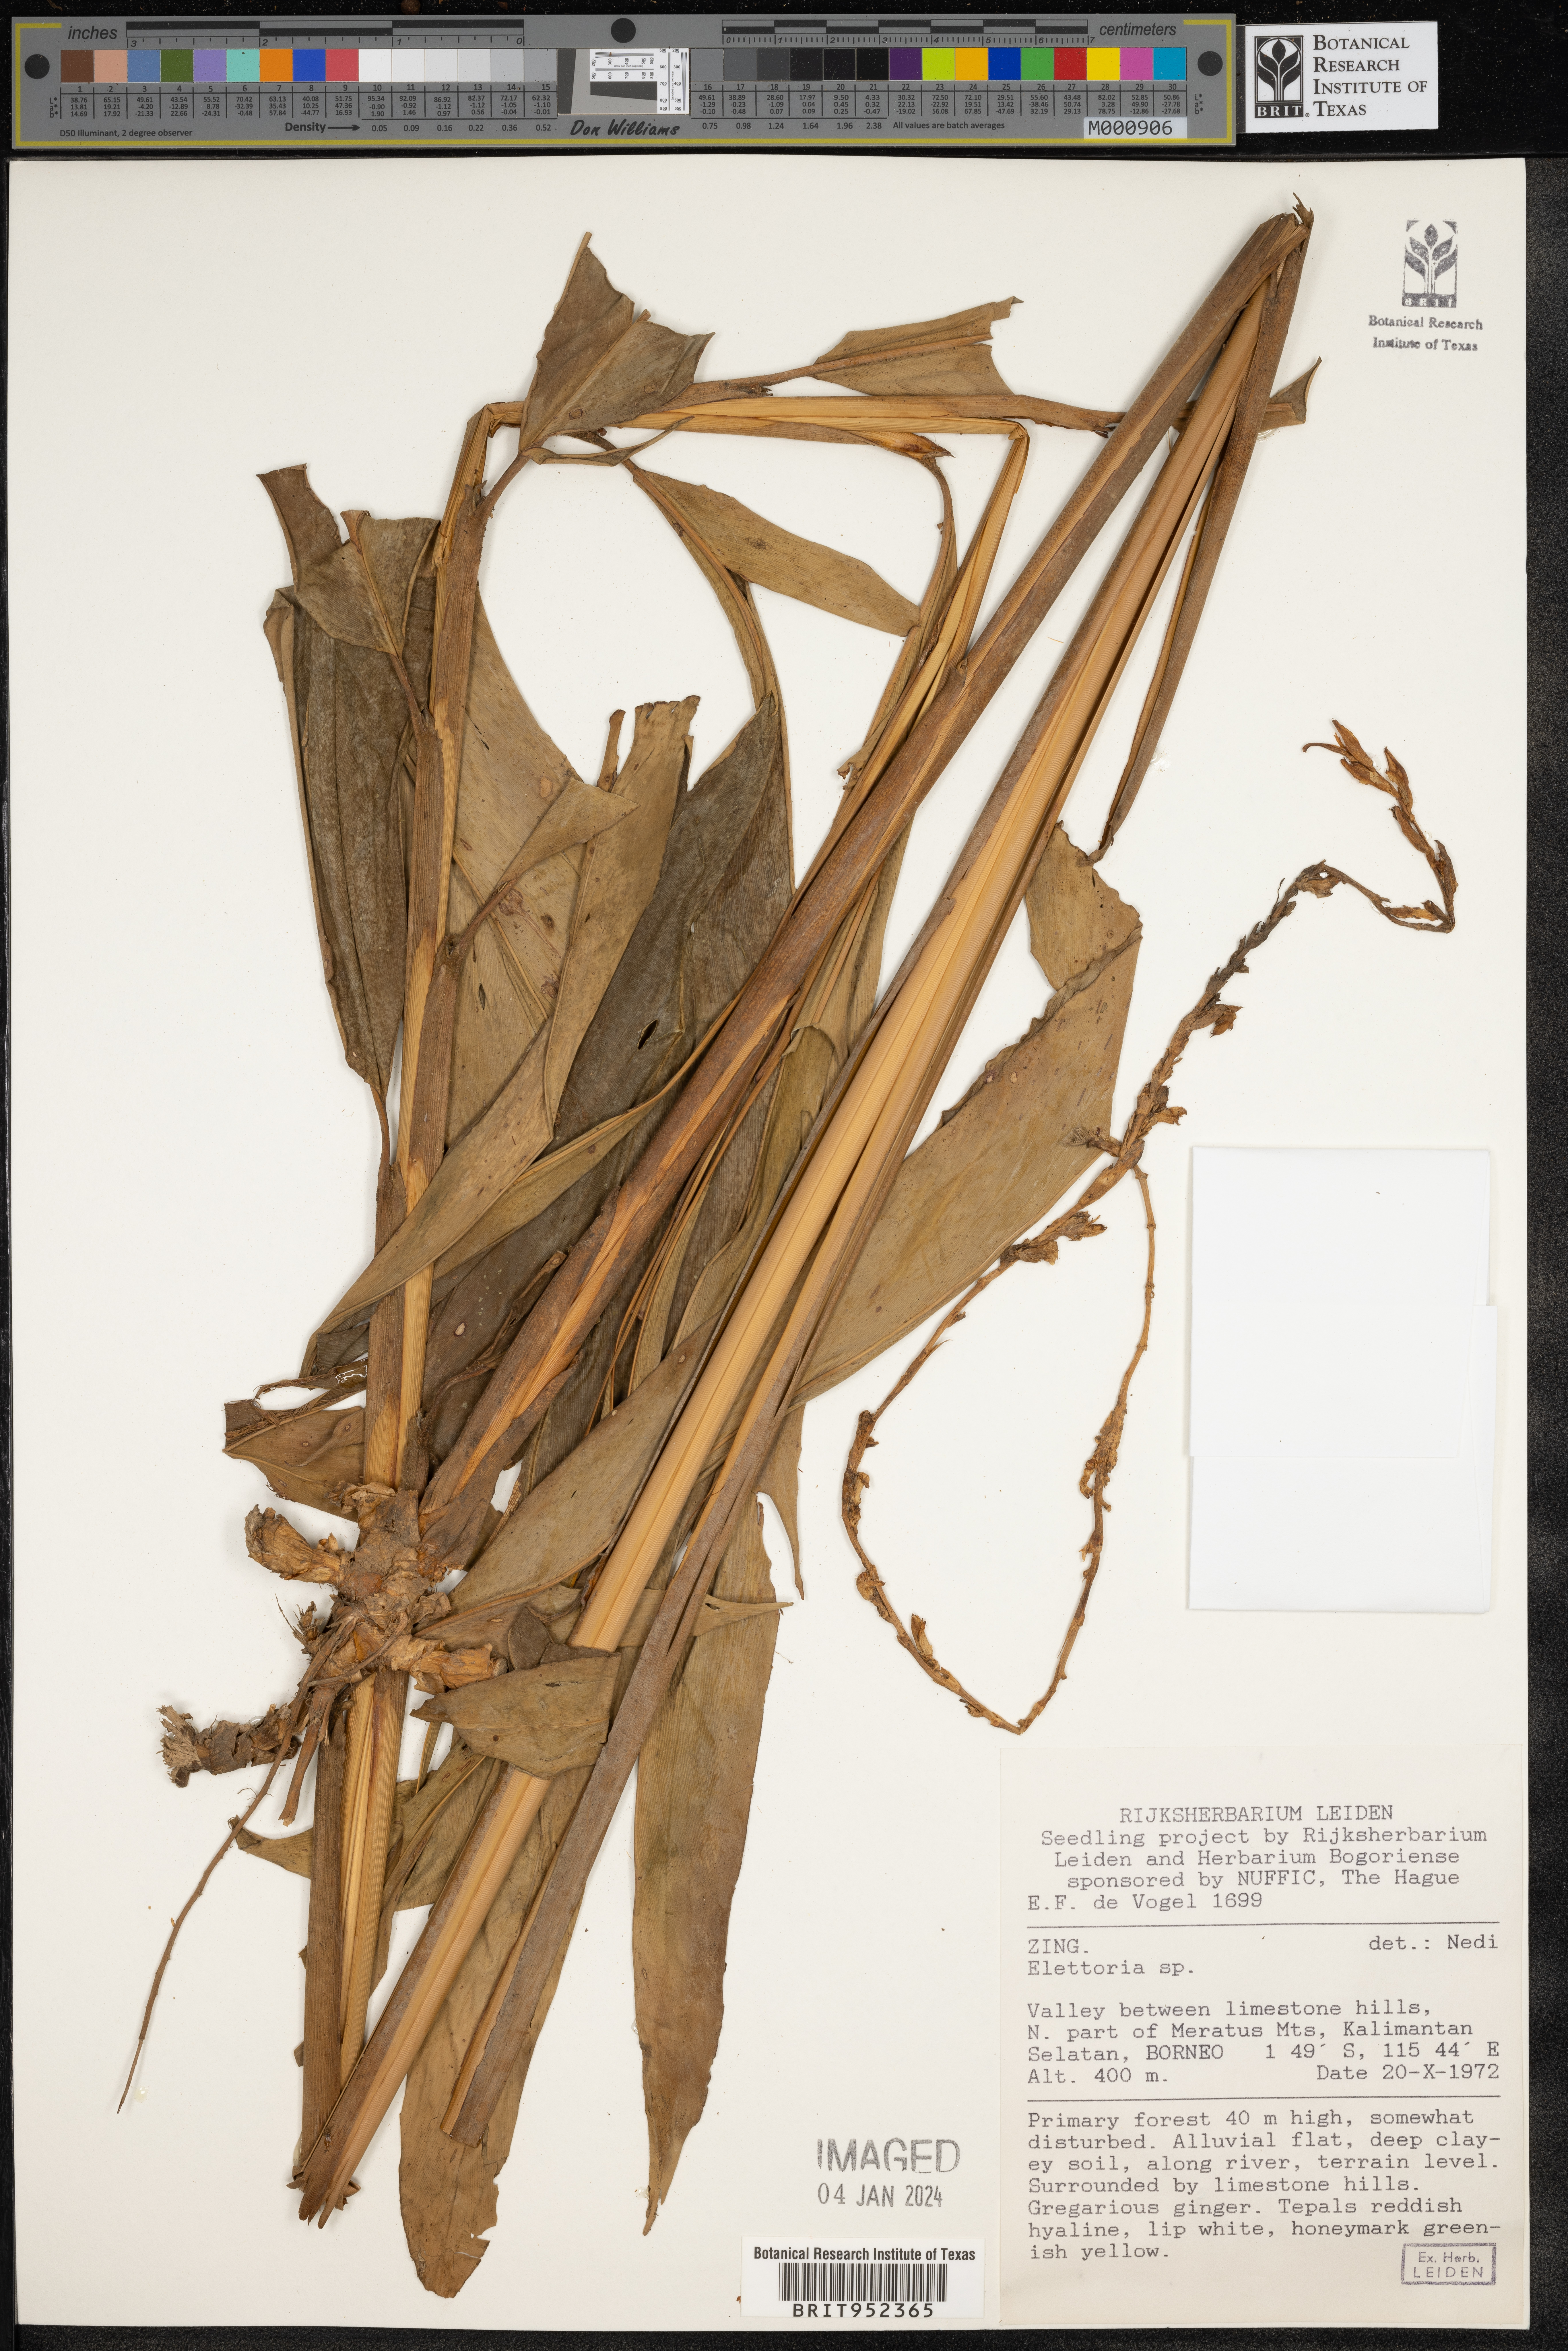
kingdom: Plantae
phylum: Tracheophyta
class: Liliopsida
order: Zingiberales
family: Zingiberaceae
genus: Elettaria
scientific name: Elettaria
